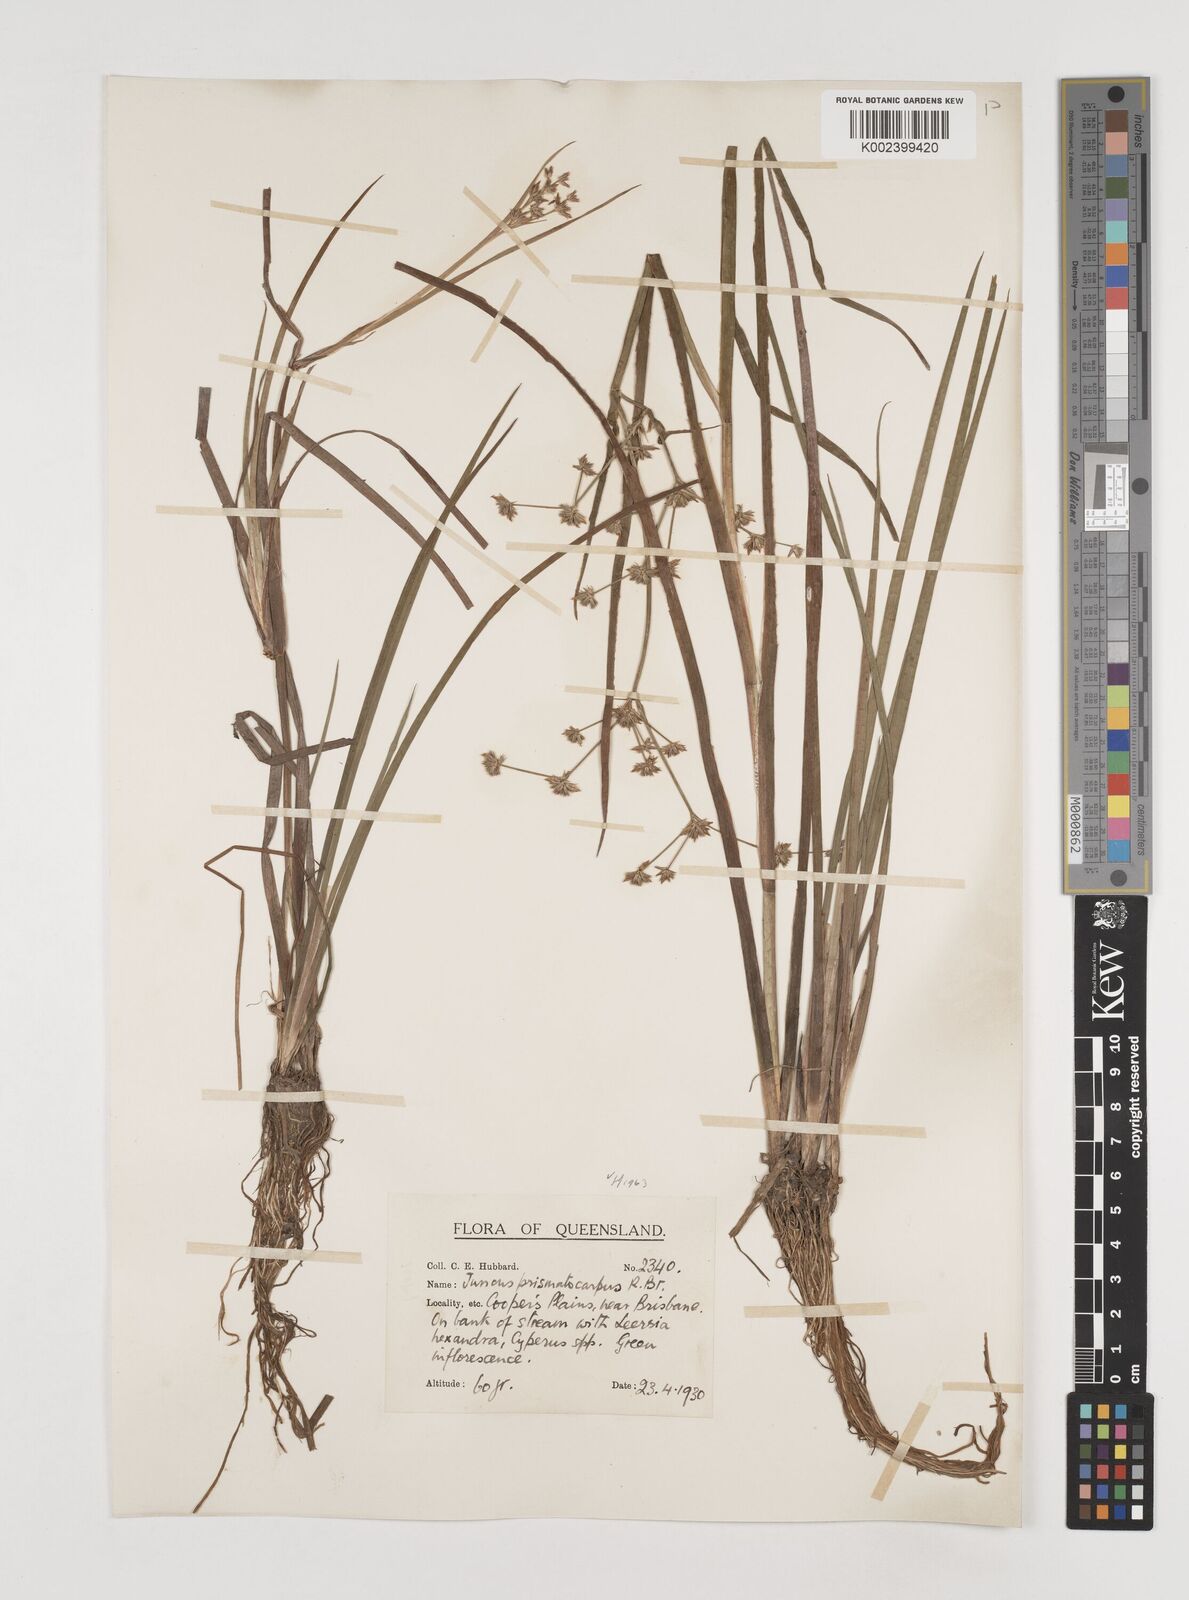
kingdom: Plantae
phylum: Tracheophyta
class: Liliopsida
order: Poales
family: Juncaceae
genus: Juncus
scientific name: Juncus prismatocarpus
